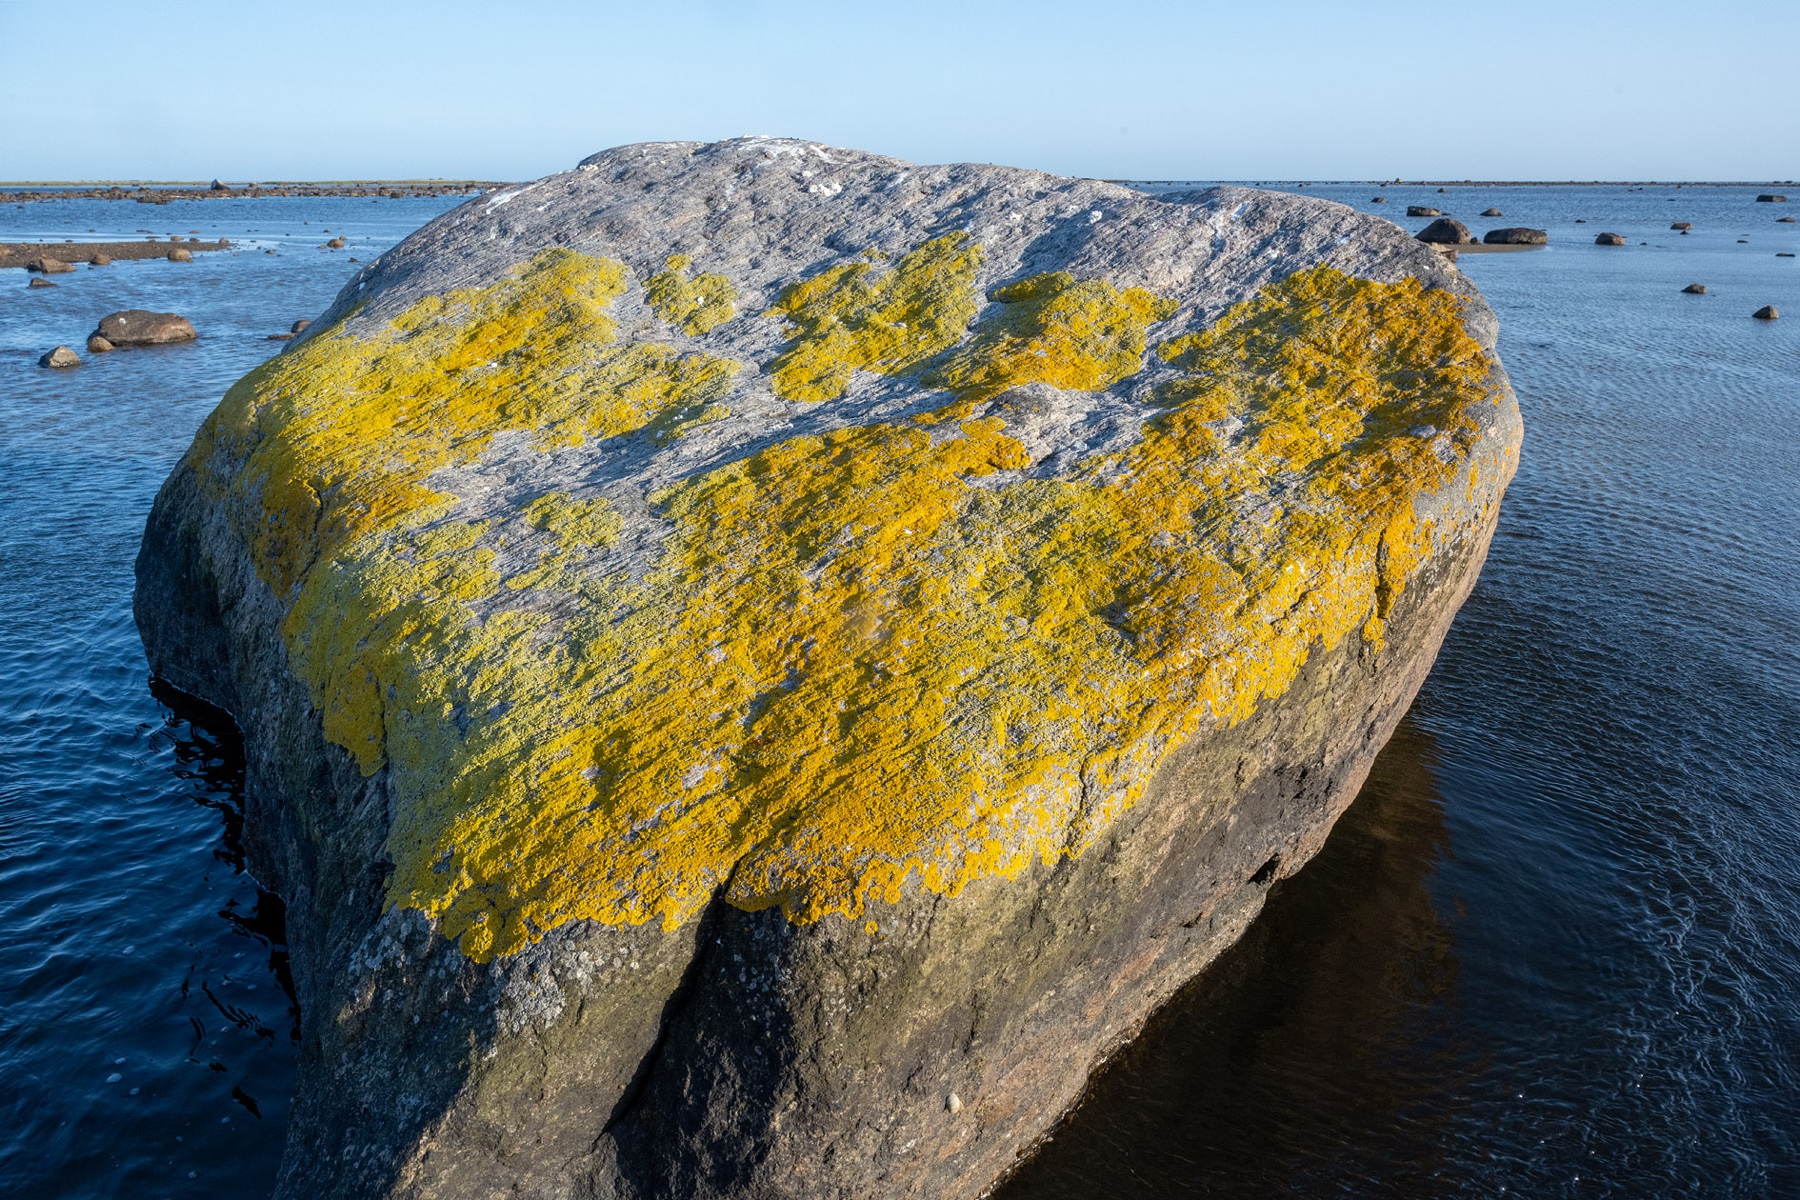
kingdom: Fungi
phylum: Ascomycota
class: Lecanoromycetes
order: Teloschistales
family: Teloschistaceae
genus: Verrucoplaca
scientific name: Verrucoplaca verruculifera
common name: koldkyst-orangelav
